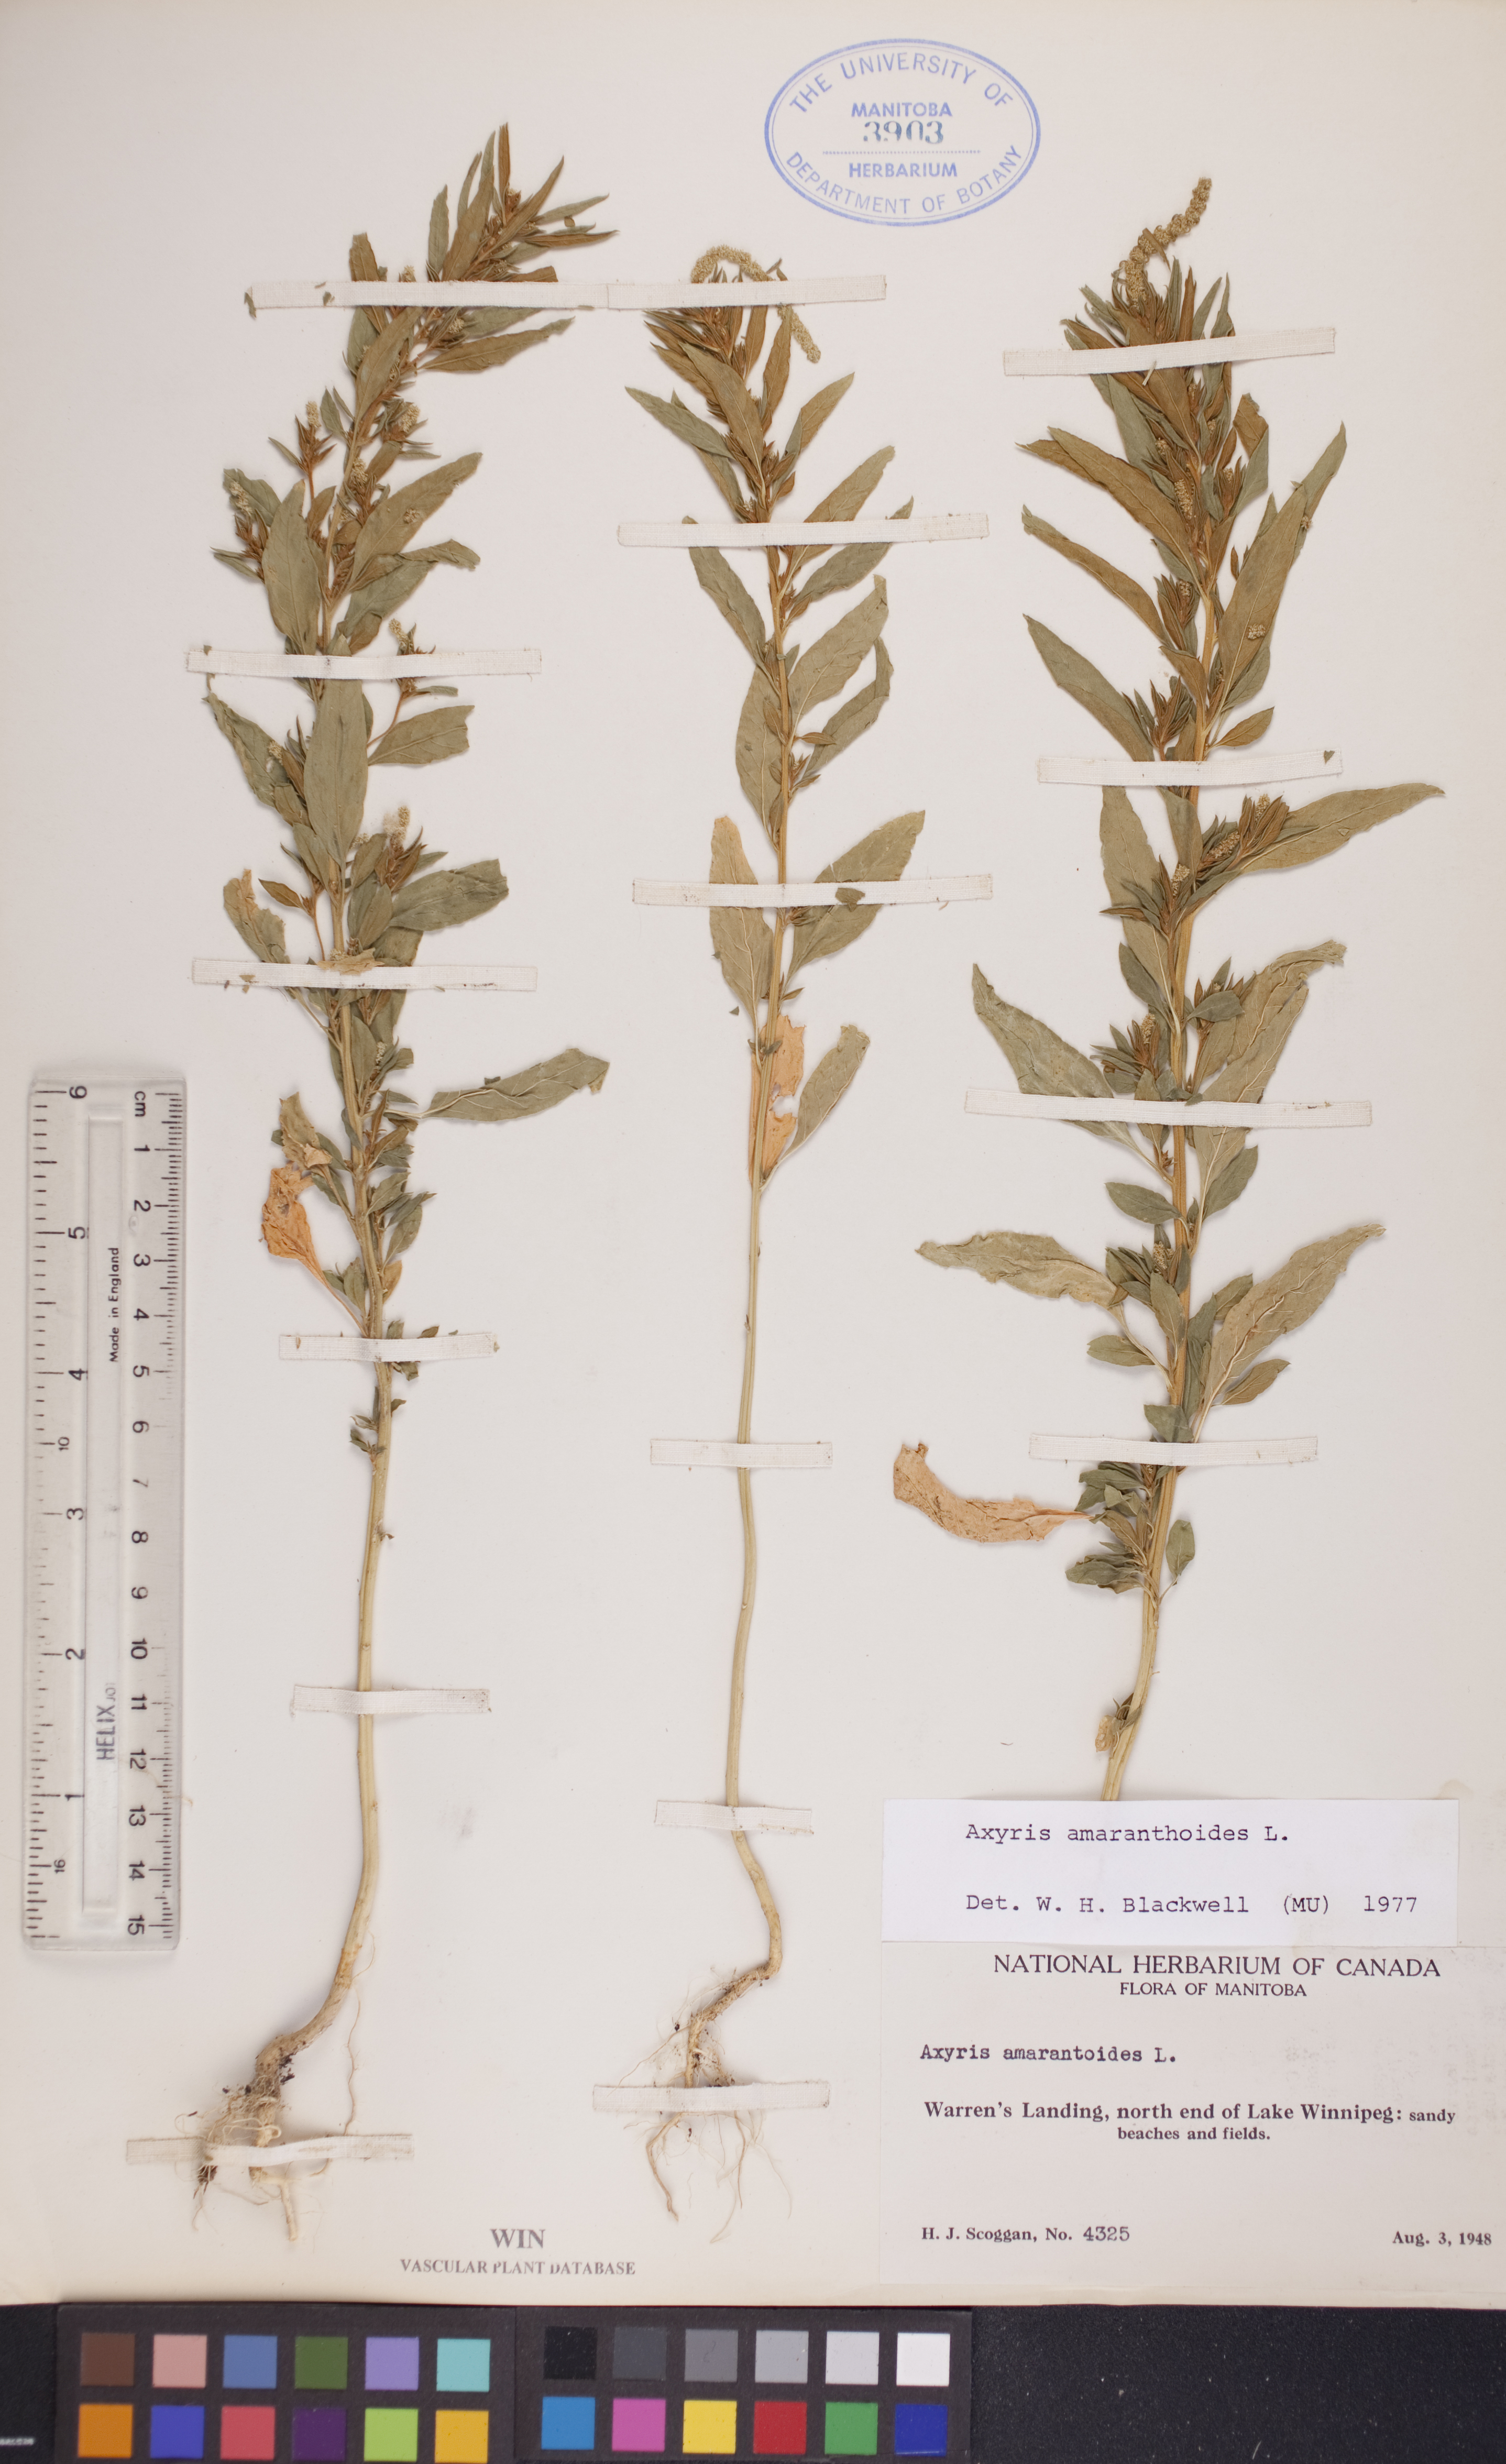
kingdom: Plantae
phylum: Tracheophyta
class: Magnoliopsida
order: Caryophyllales
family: Amaranthaceae
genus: Axyris
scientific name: Axyris amaranthoides
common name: Russian pigweed
